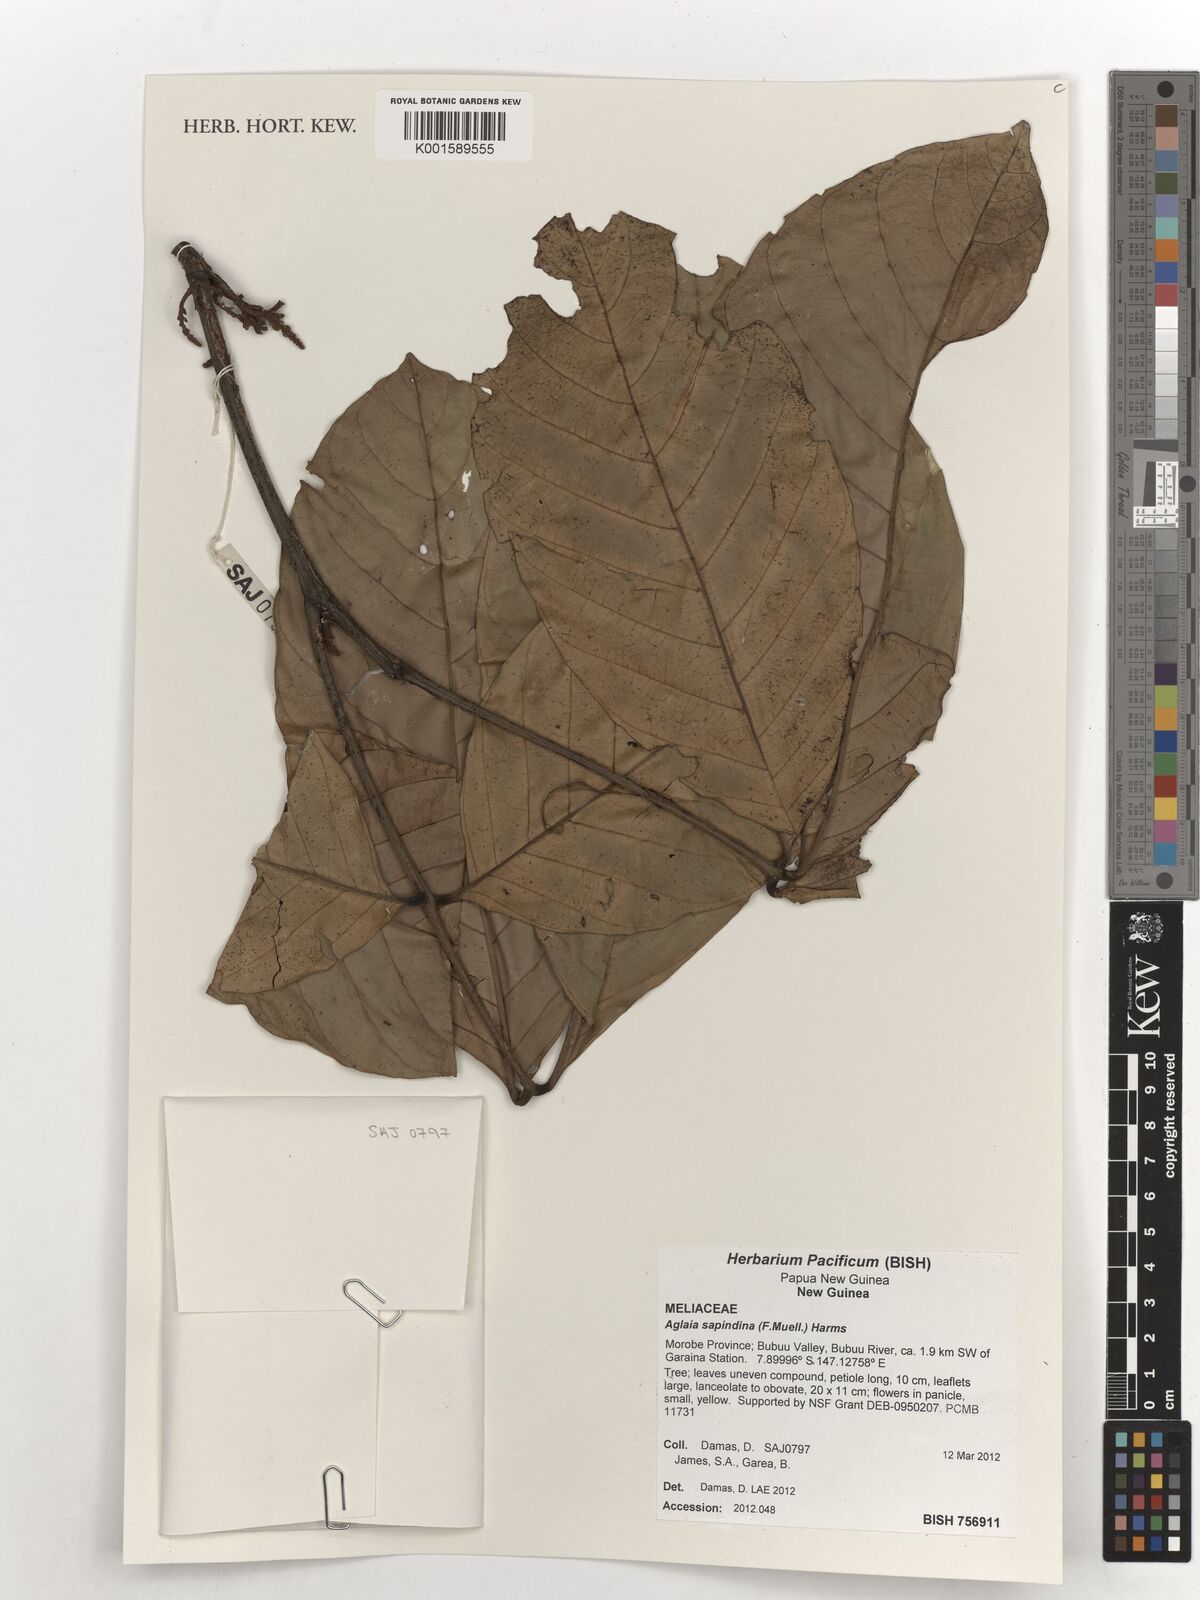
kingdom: Plantae
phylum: Tracheophyta
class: Magnoliopsida
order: Sapindales
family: Meliaceae
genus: Aglaia
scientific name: Aglaia sapindina
